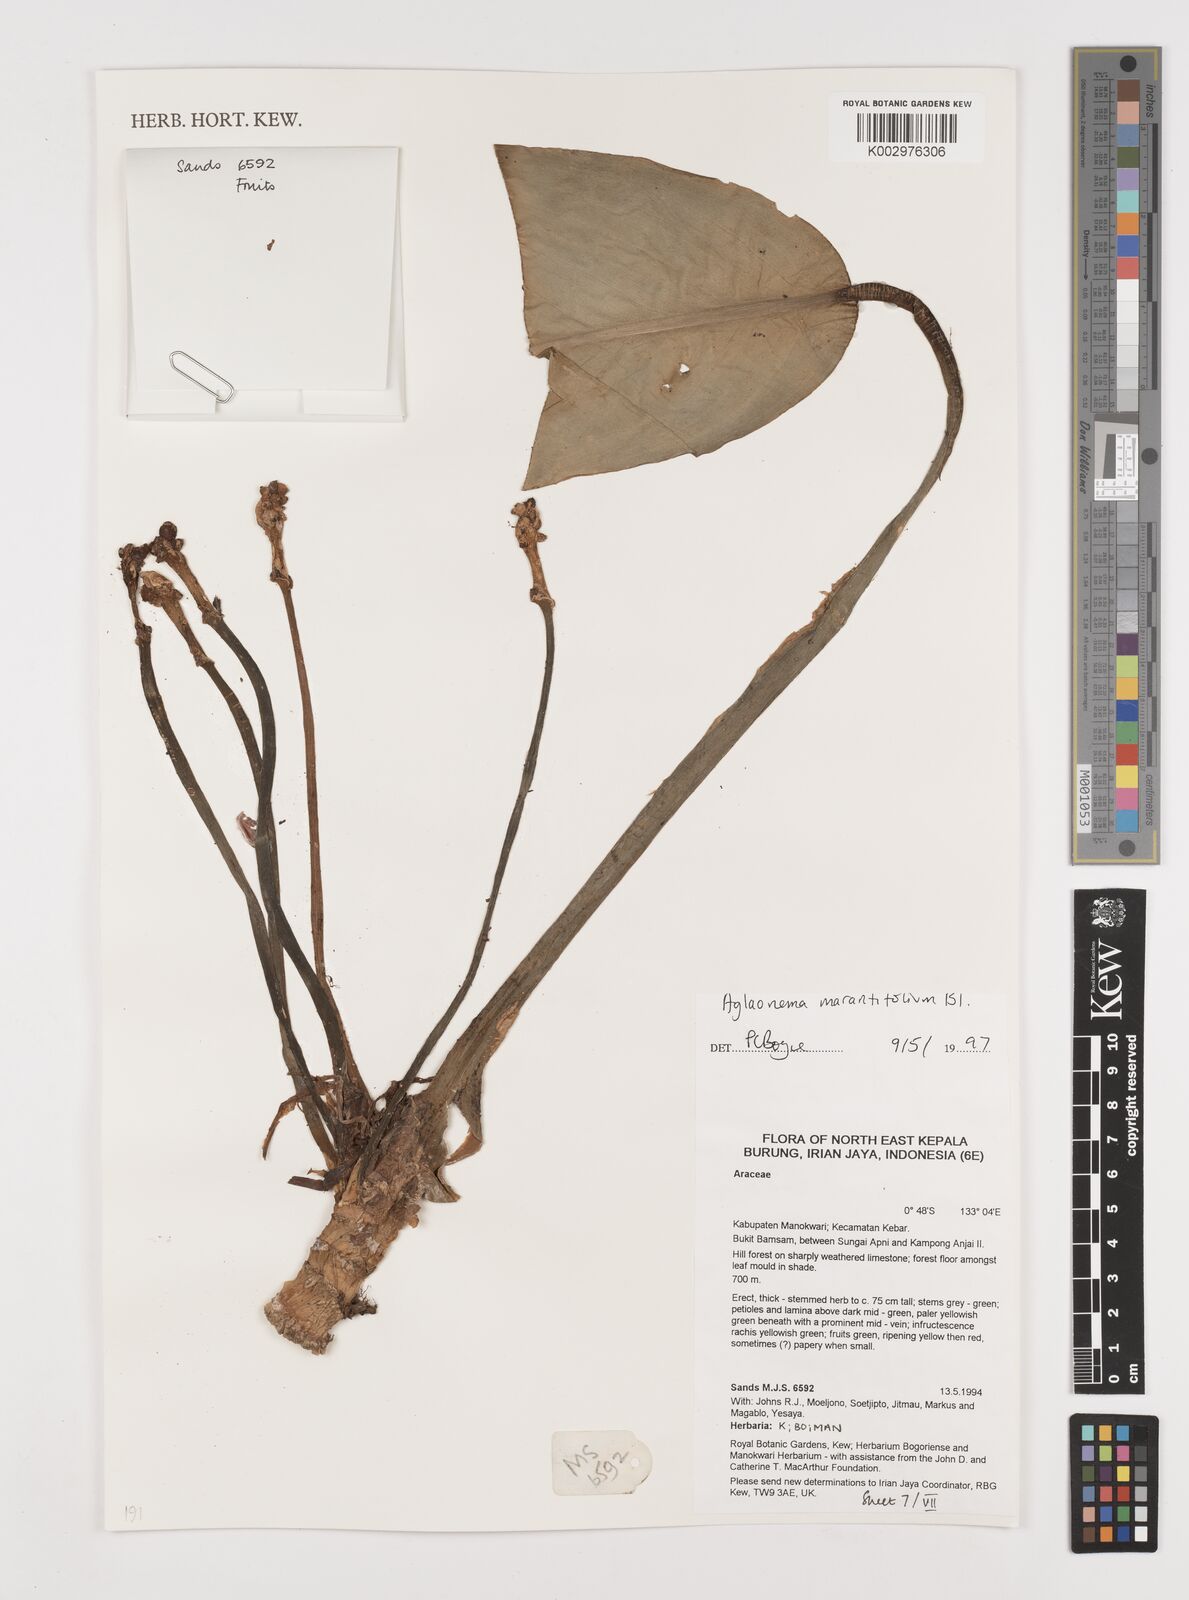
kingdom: Plantae
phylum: Tracheophyta
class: Liliopsida
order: Alismatales
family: Araceae
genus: Aglaonema
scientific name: Aglaonema marantifolium
